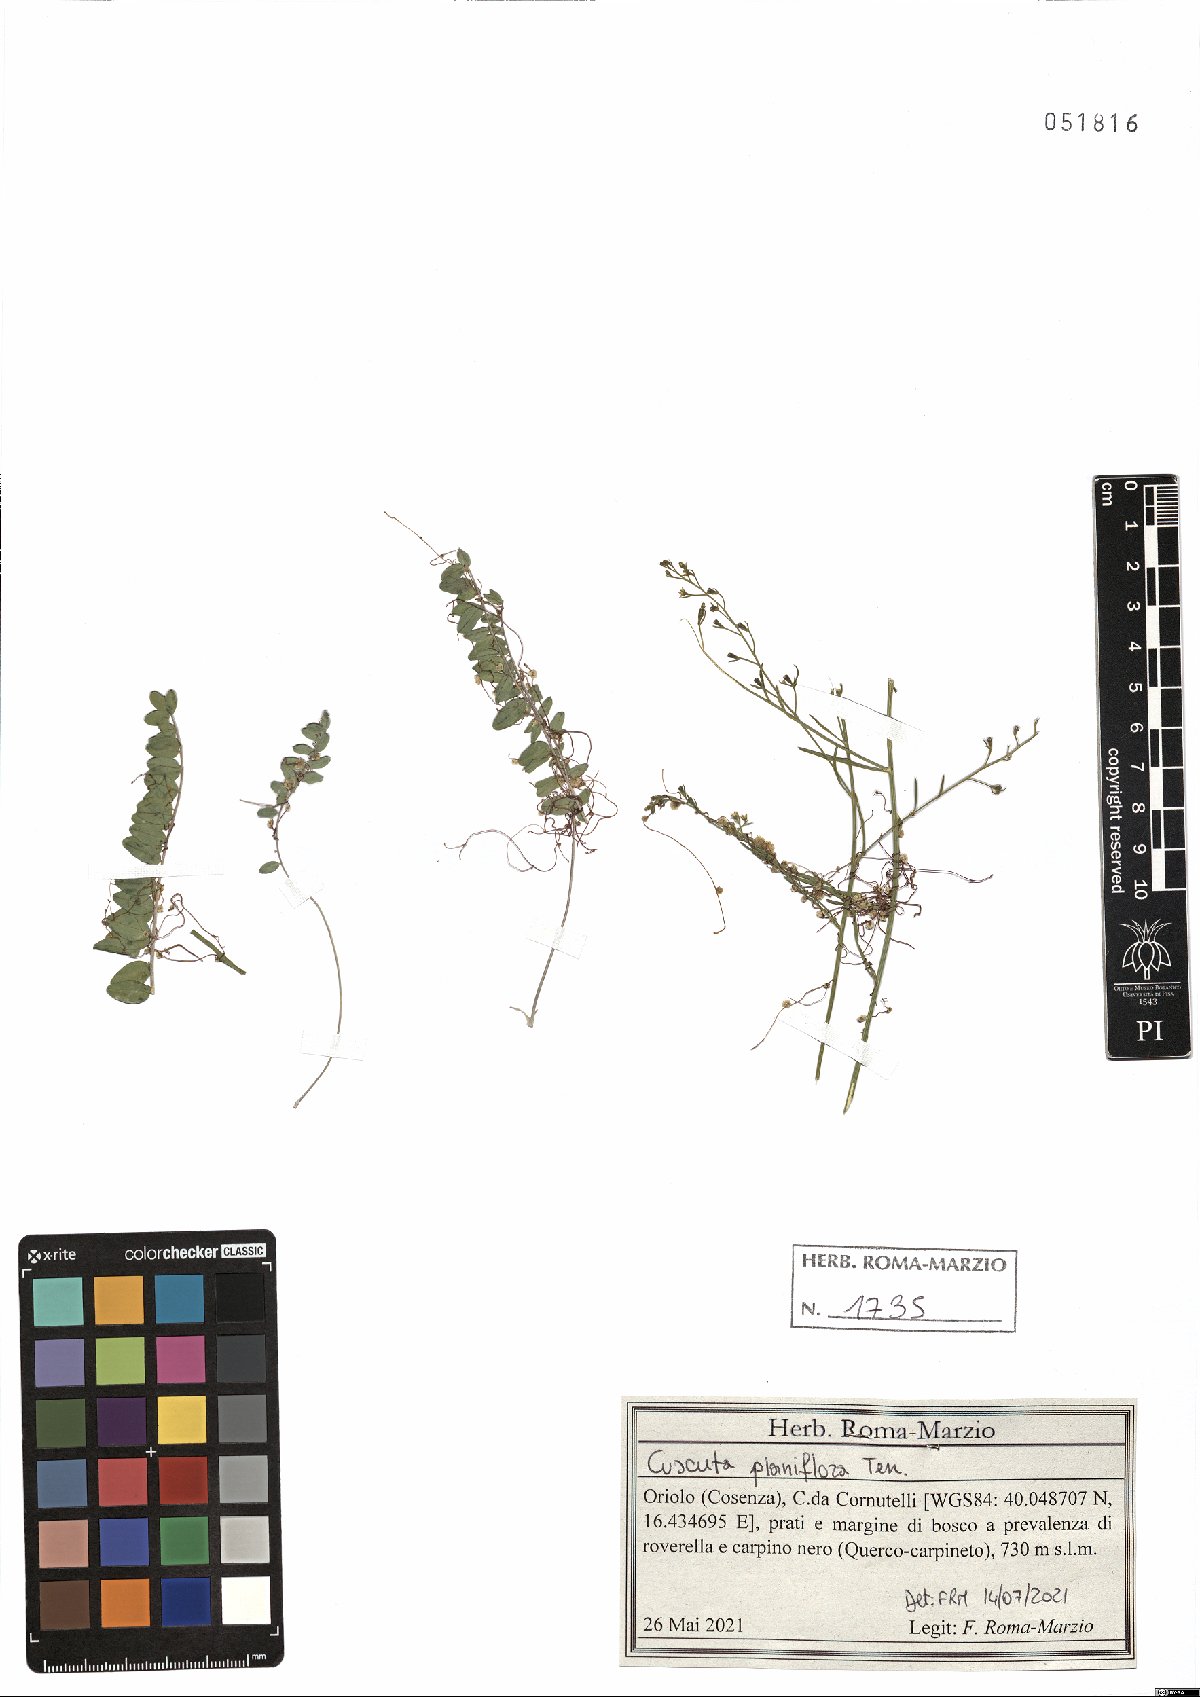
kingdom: Plantae
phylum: Tracheophyta
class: Magnoliopsida
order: Solanales
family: Convolvulaceae
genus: Cuscuta
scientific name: Cuscuta planiflora
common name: Small-seed alfalfa dodder
